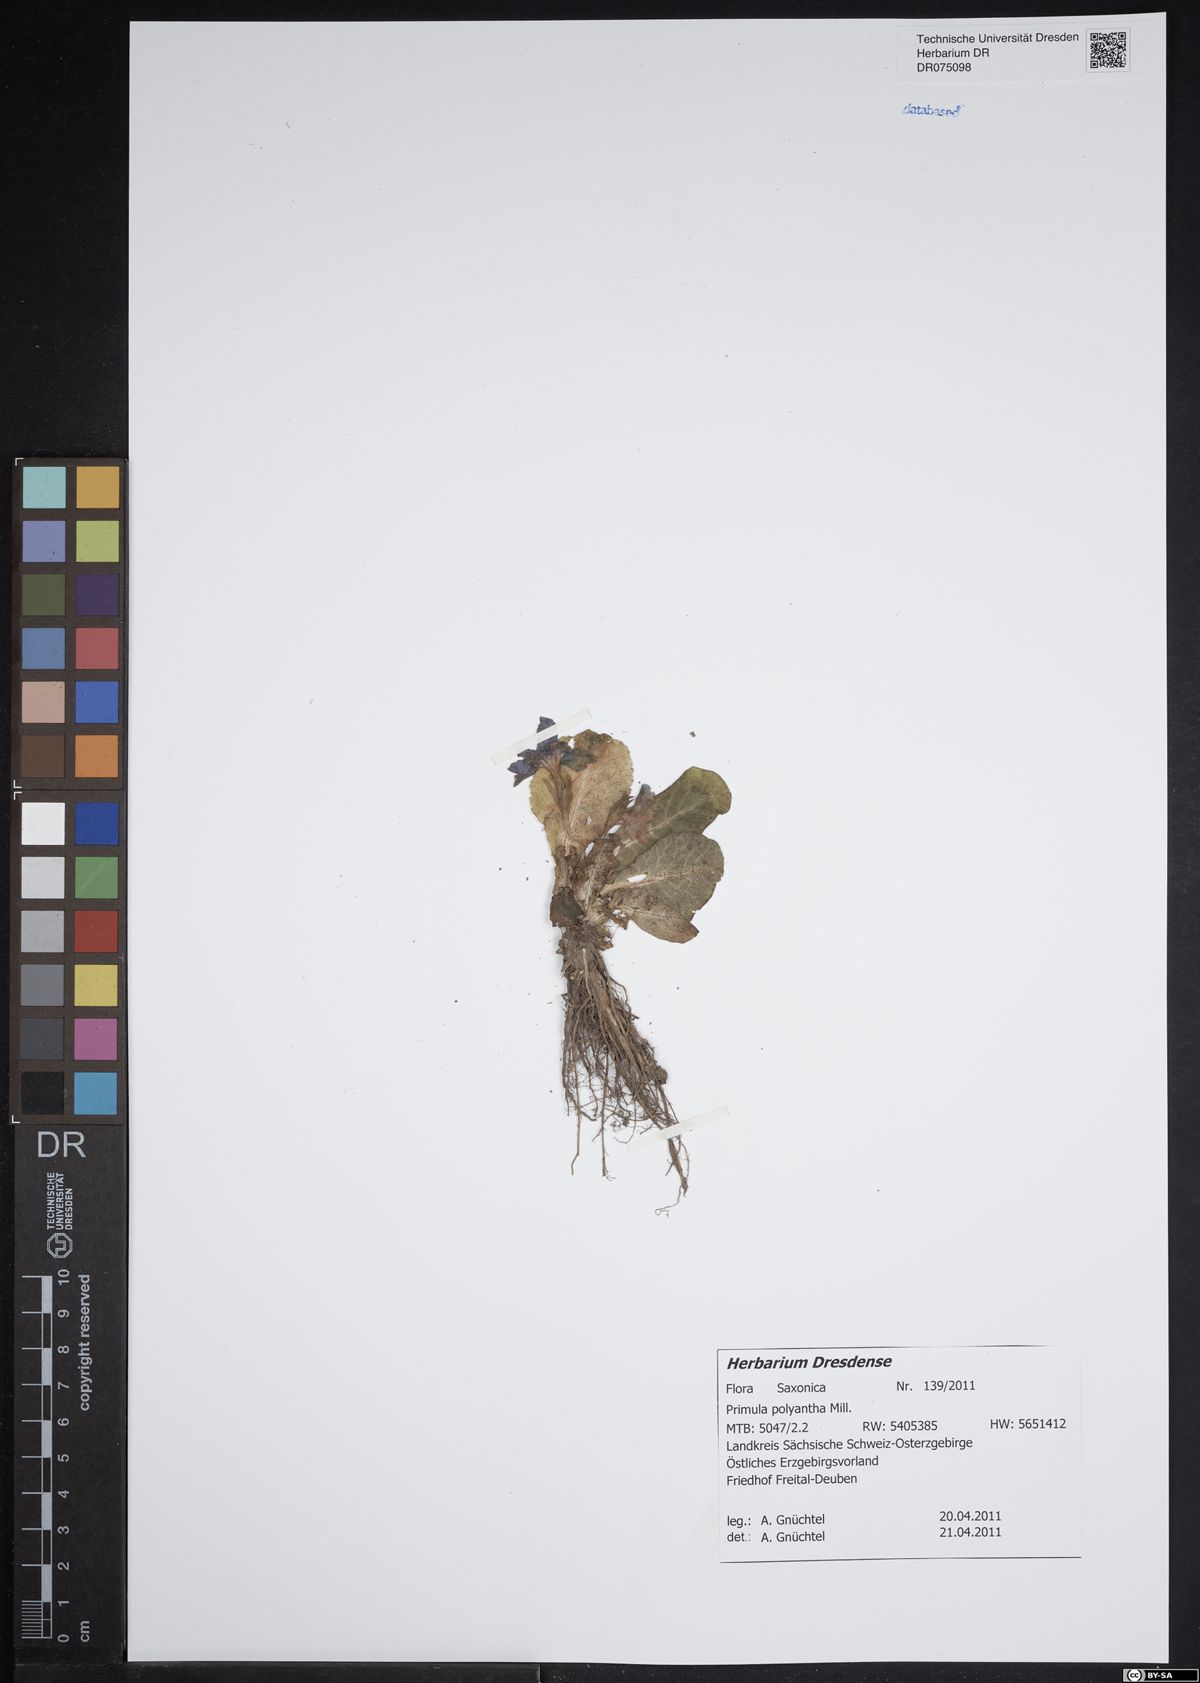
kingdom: Plantae
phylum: Tracheophyta
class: Magnoliopsida
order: Ericales
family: Primulaceae
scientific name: Primulaceae
